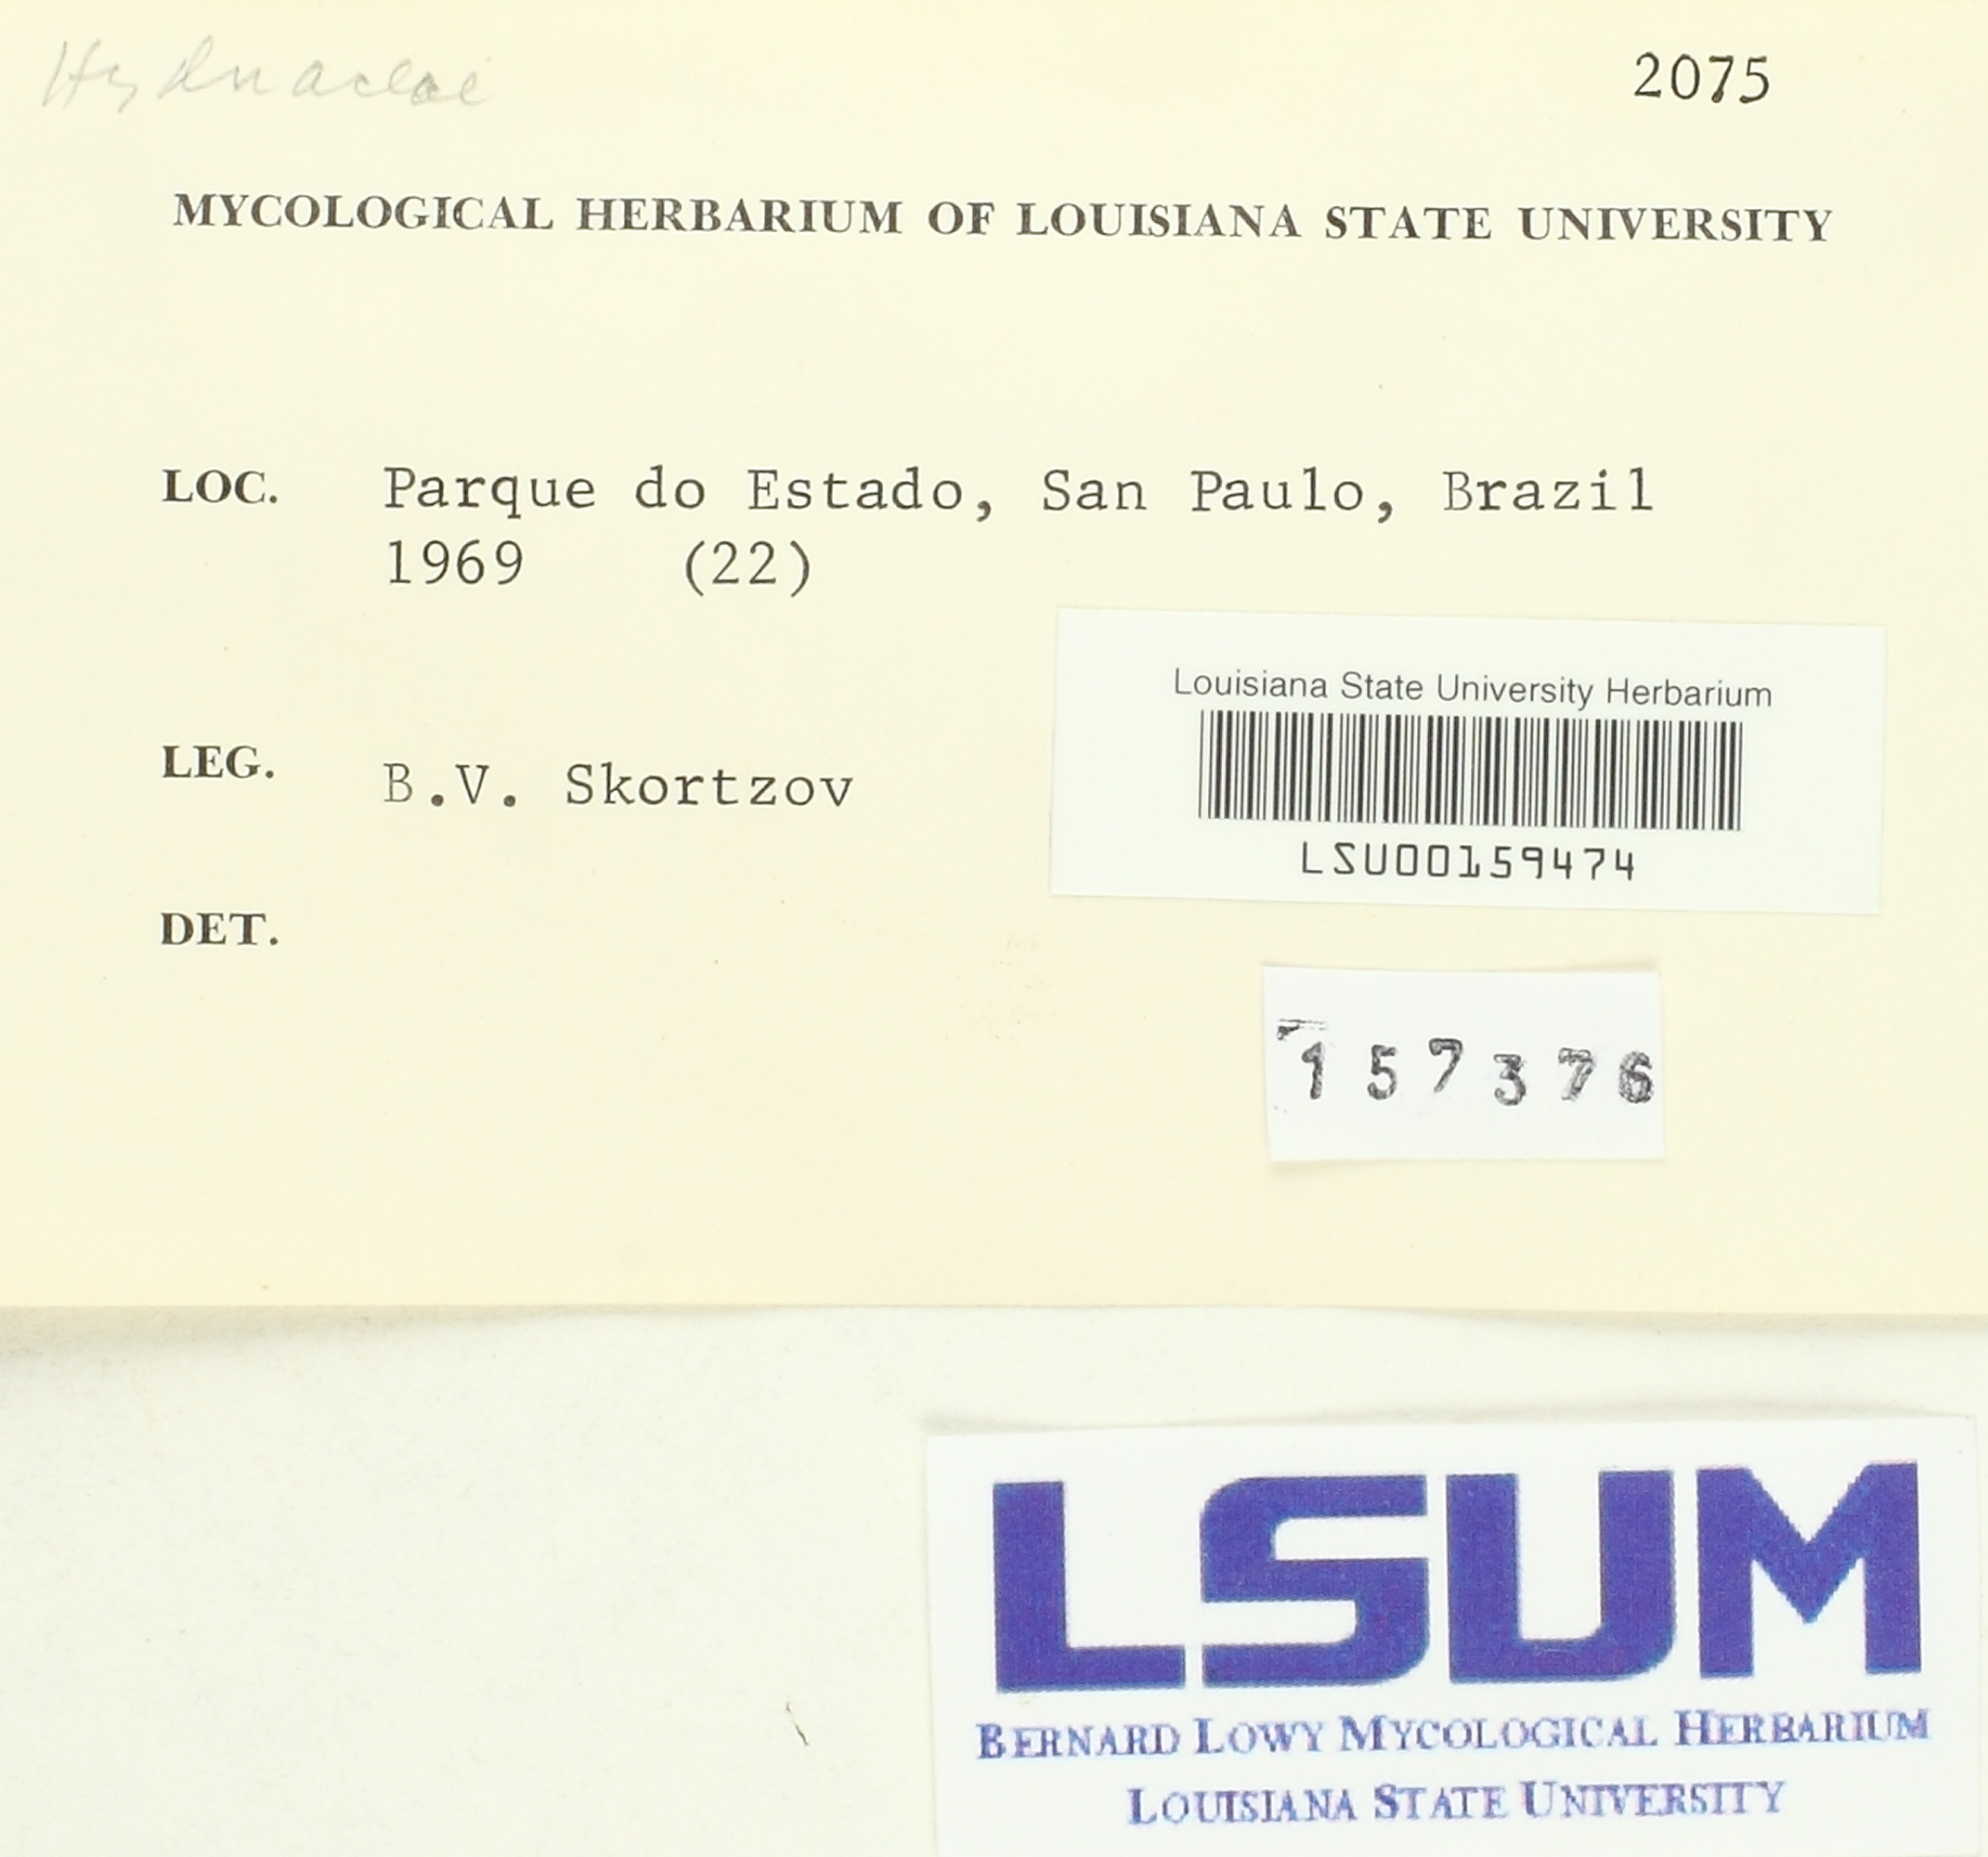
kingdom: Fungi
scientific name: Fungi
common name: Fungi
